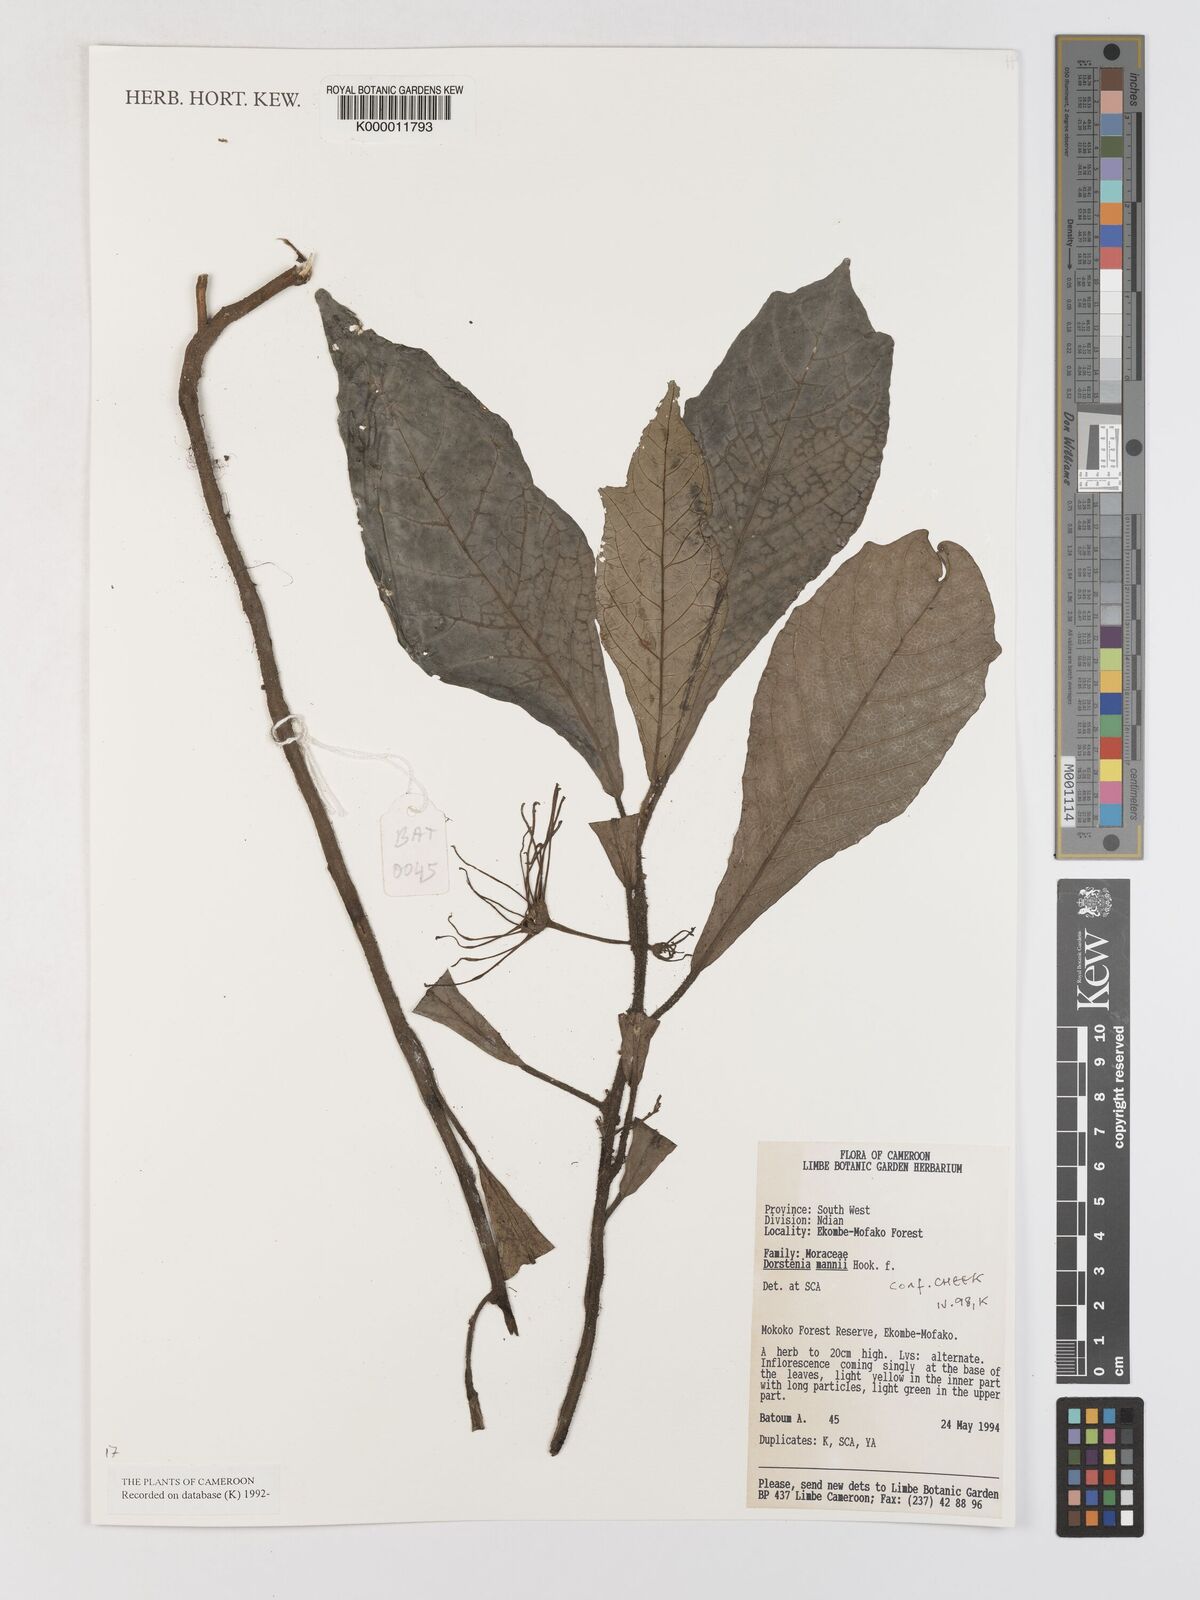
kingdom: Plantae
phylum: Tracheophyta
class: Magnoliopsida
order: Rosales
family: Moraceae
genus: Dorstenia
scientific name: Dorstenia mannii
